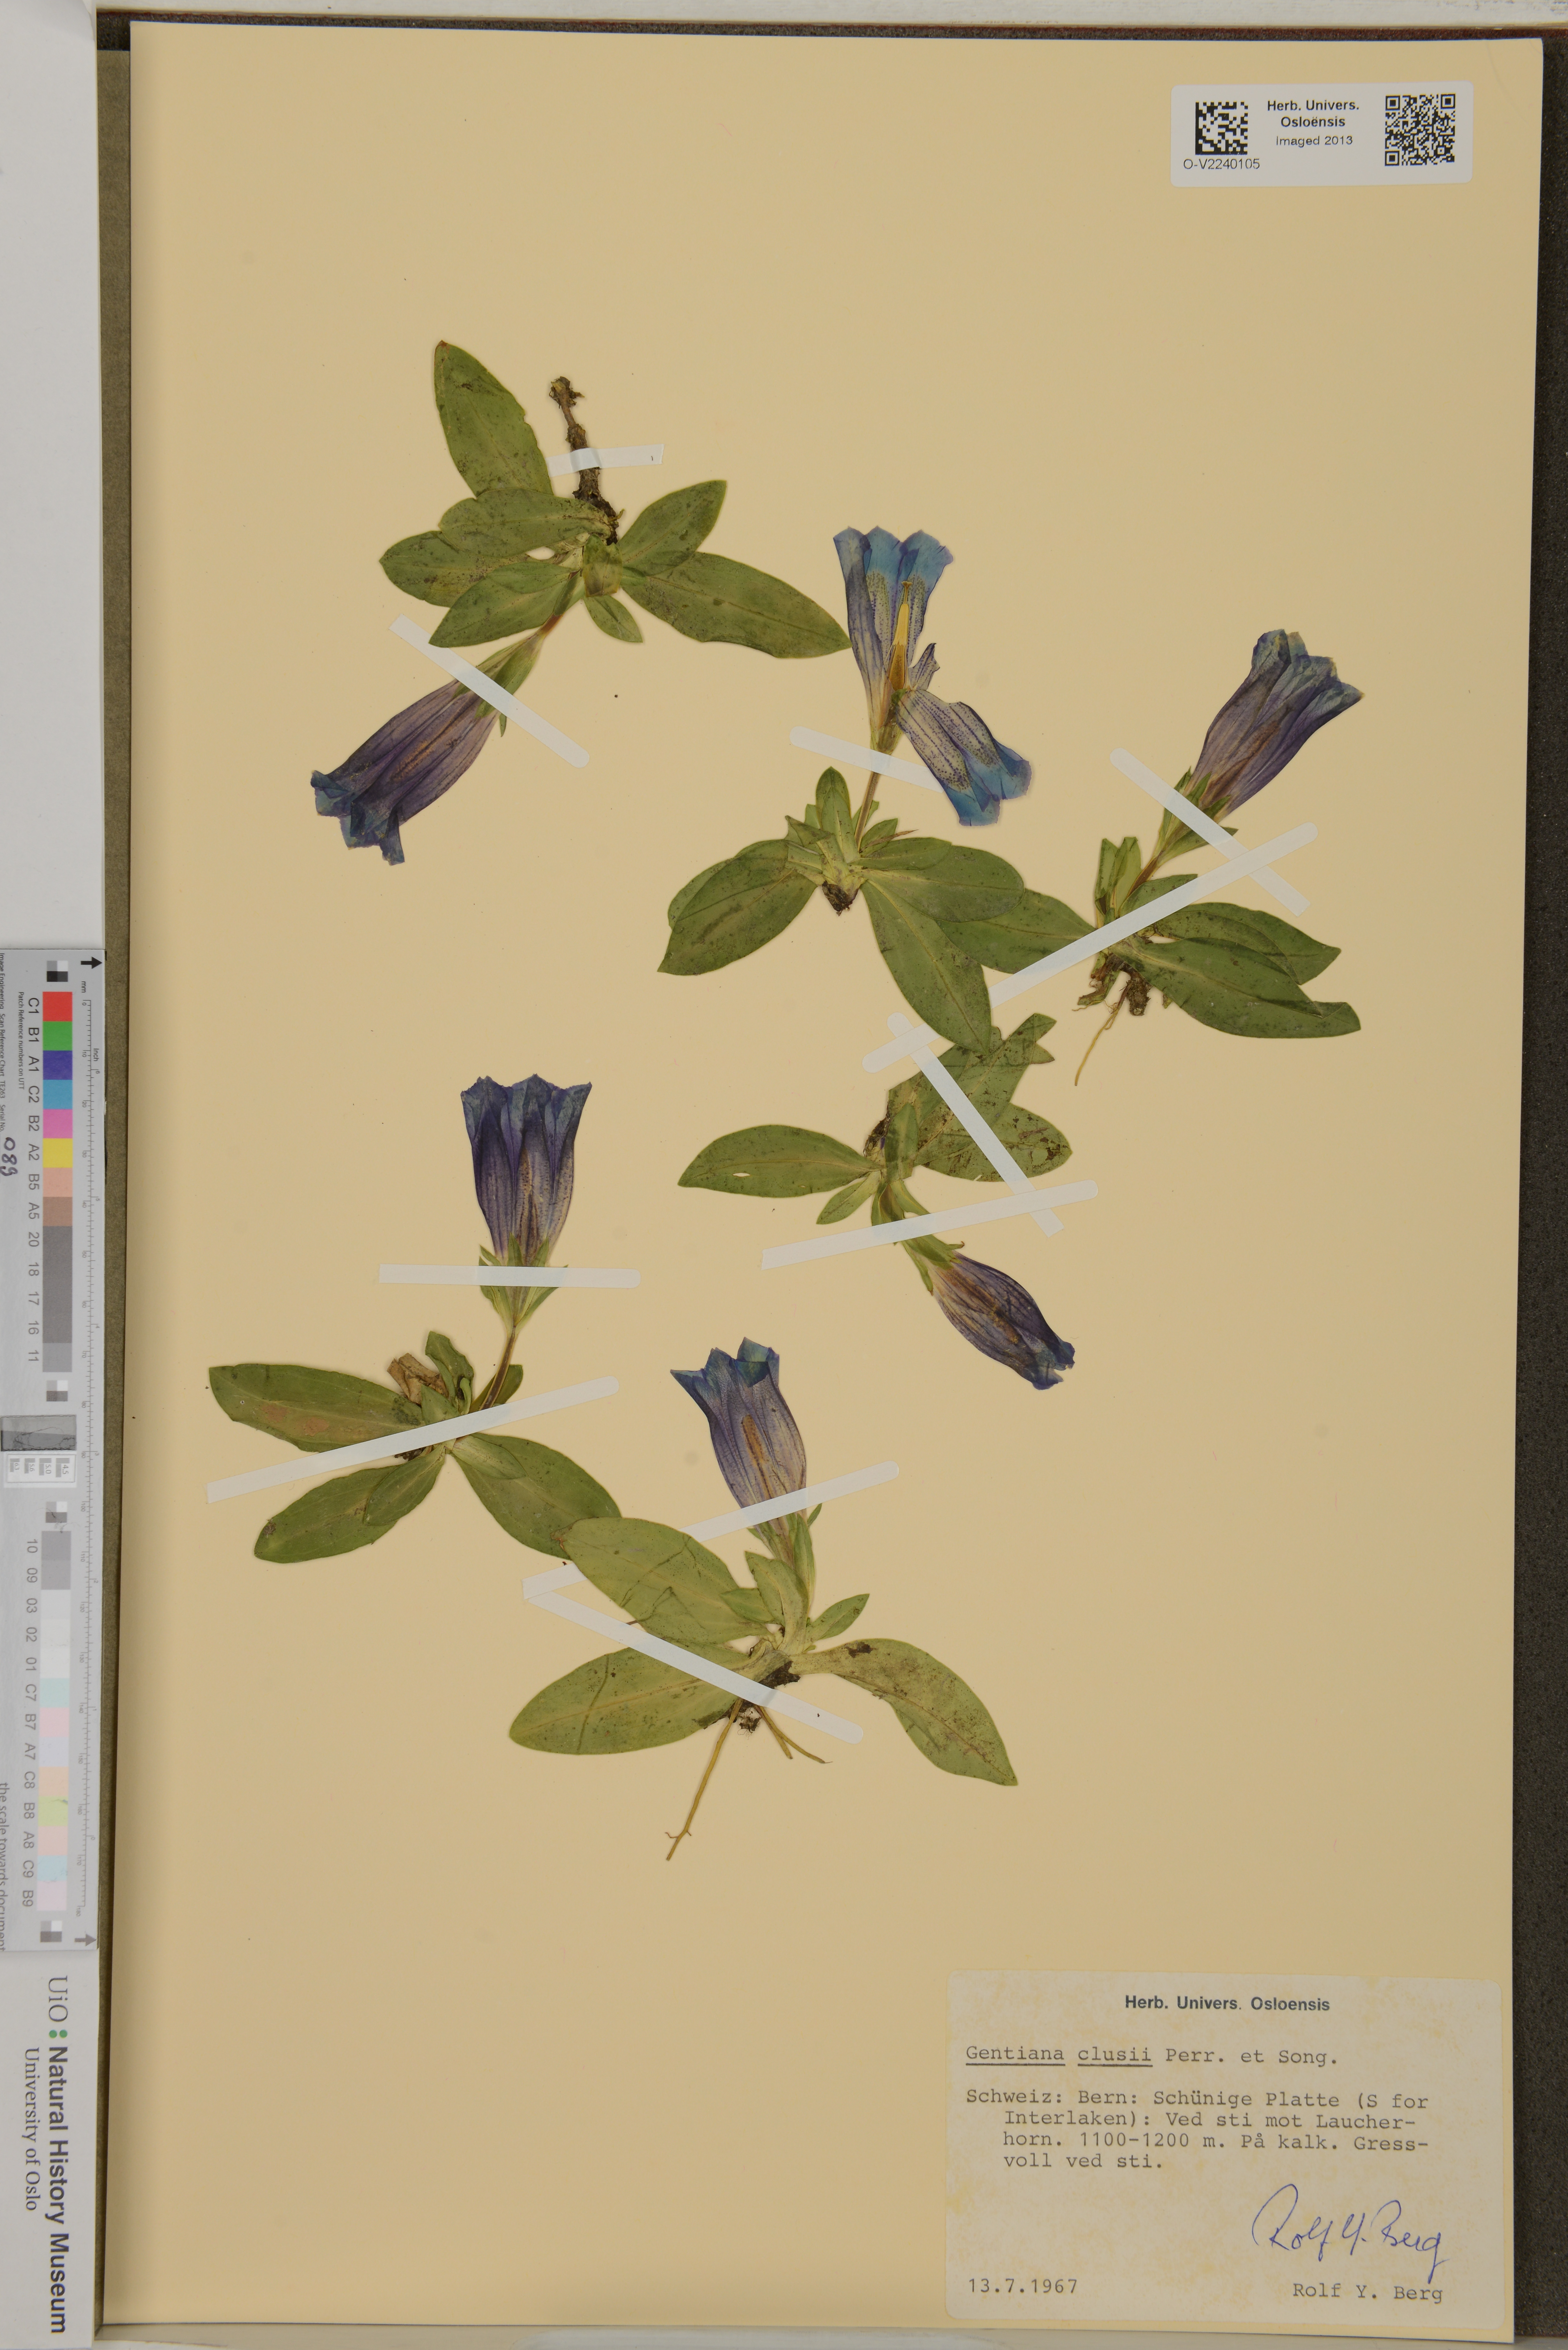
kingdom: Plantae
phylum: Tracheophyta
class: Magnoliopsida
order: Gentianales
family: Gentianaceae
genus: Gentiana
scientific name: Gentiana clusii
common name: Trumpet gentian
